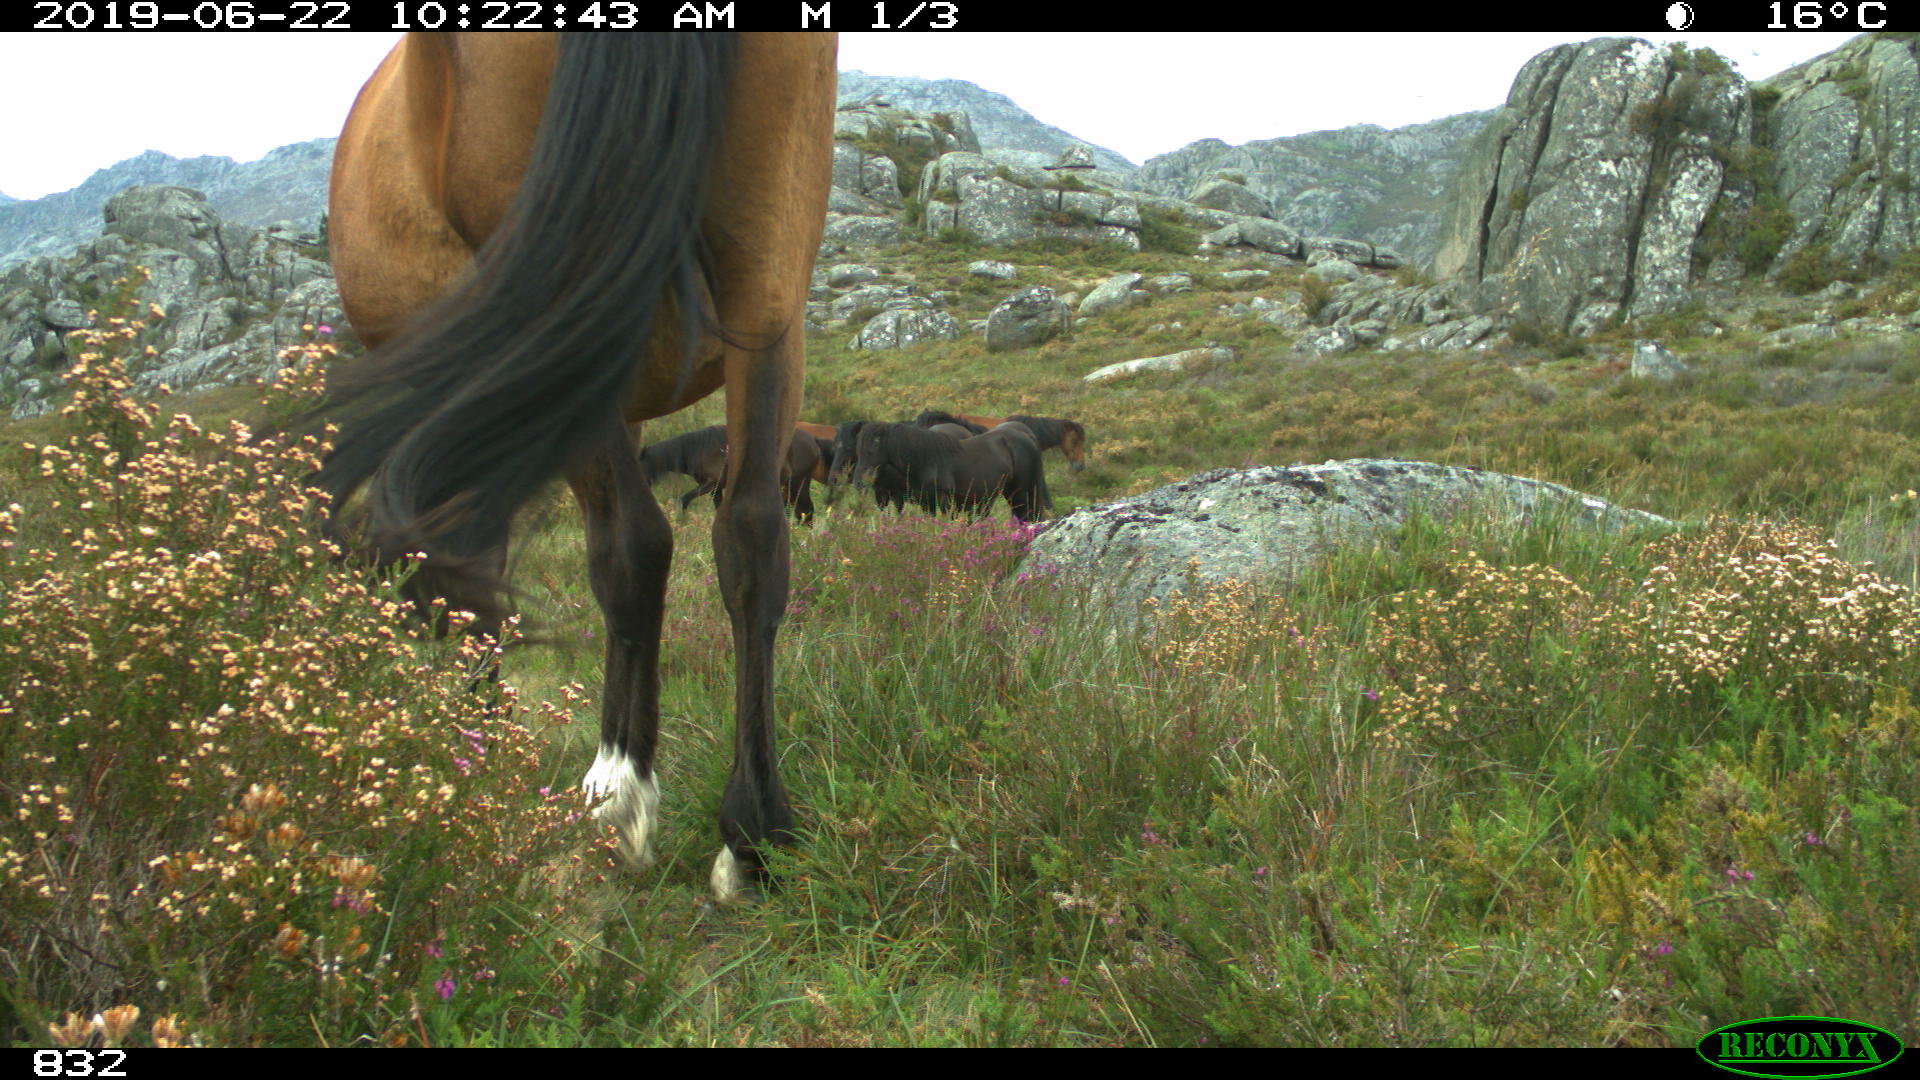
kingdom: Animalia
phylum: Chordata
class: Mammalia
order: Perissodactyla
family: Equidae
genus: Equus
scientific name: Equus caballus
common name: Horse
